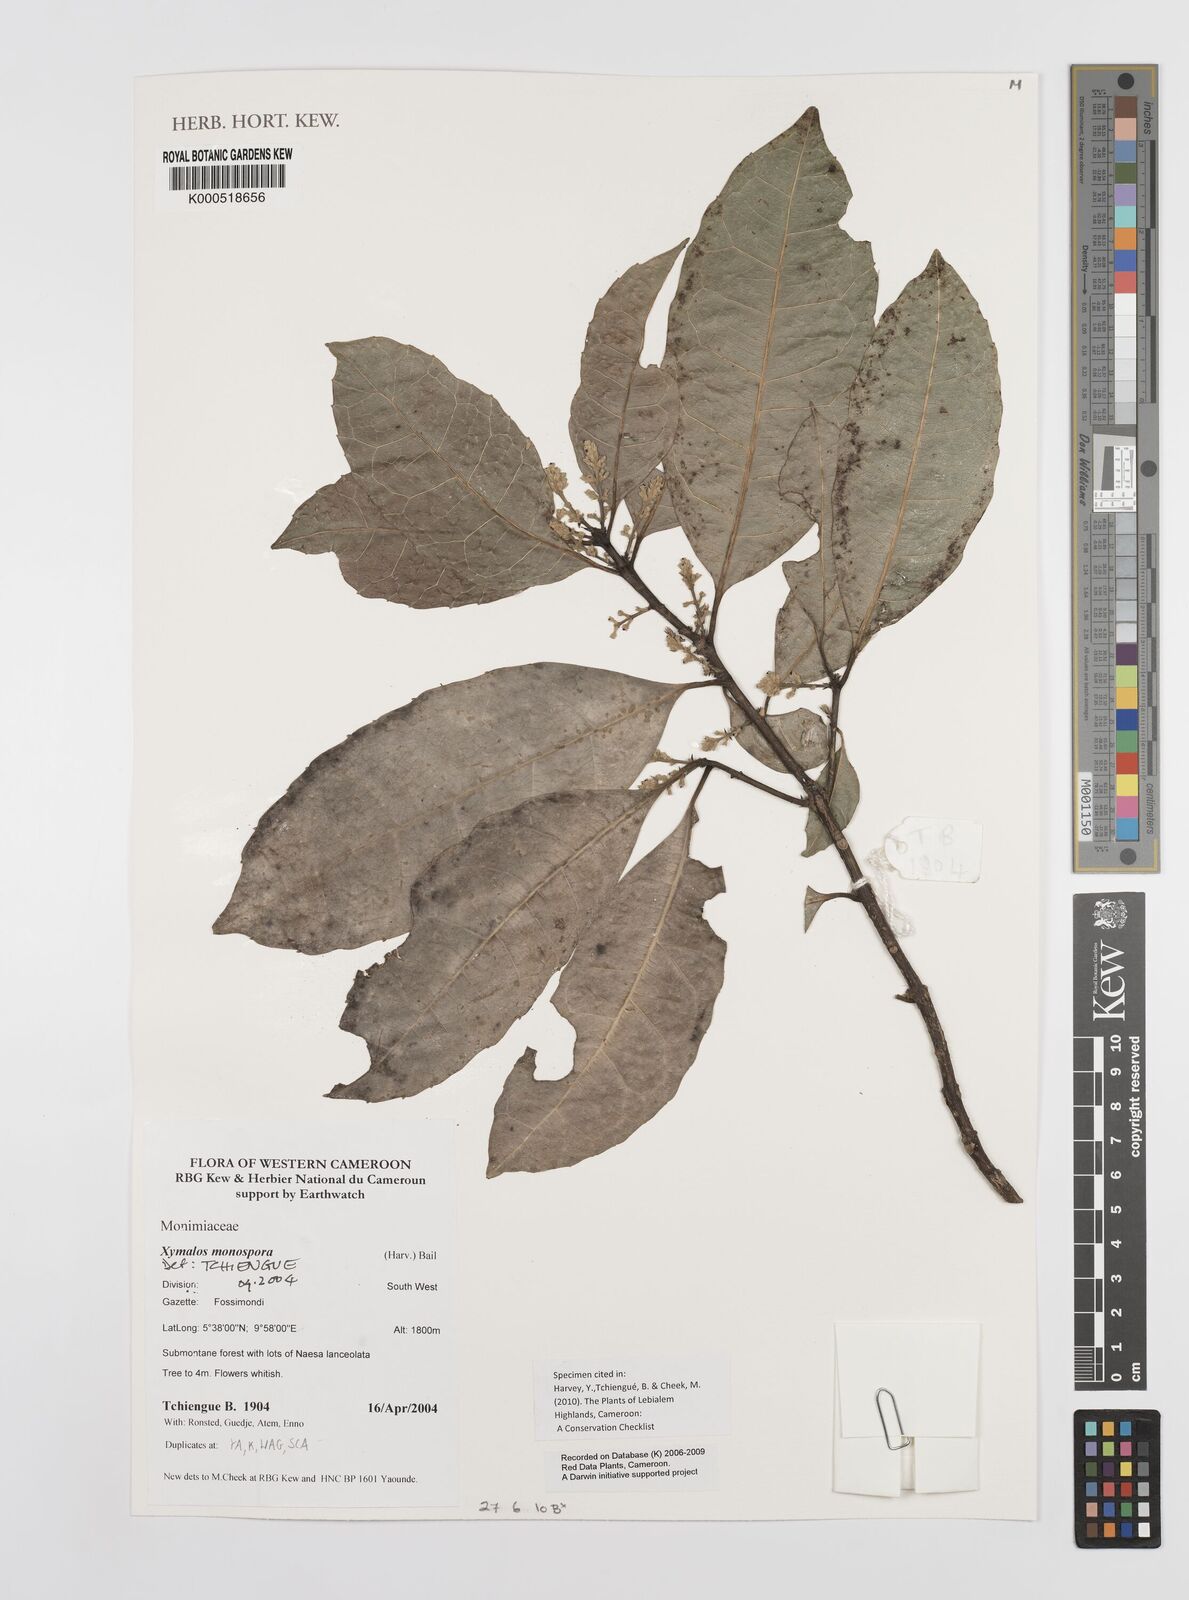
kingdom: Plantae
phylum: Tracheophyta
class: Magnoliopsida
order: Laurales
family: Monimiaceae
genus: Xymalos
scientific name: Xymalos
